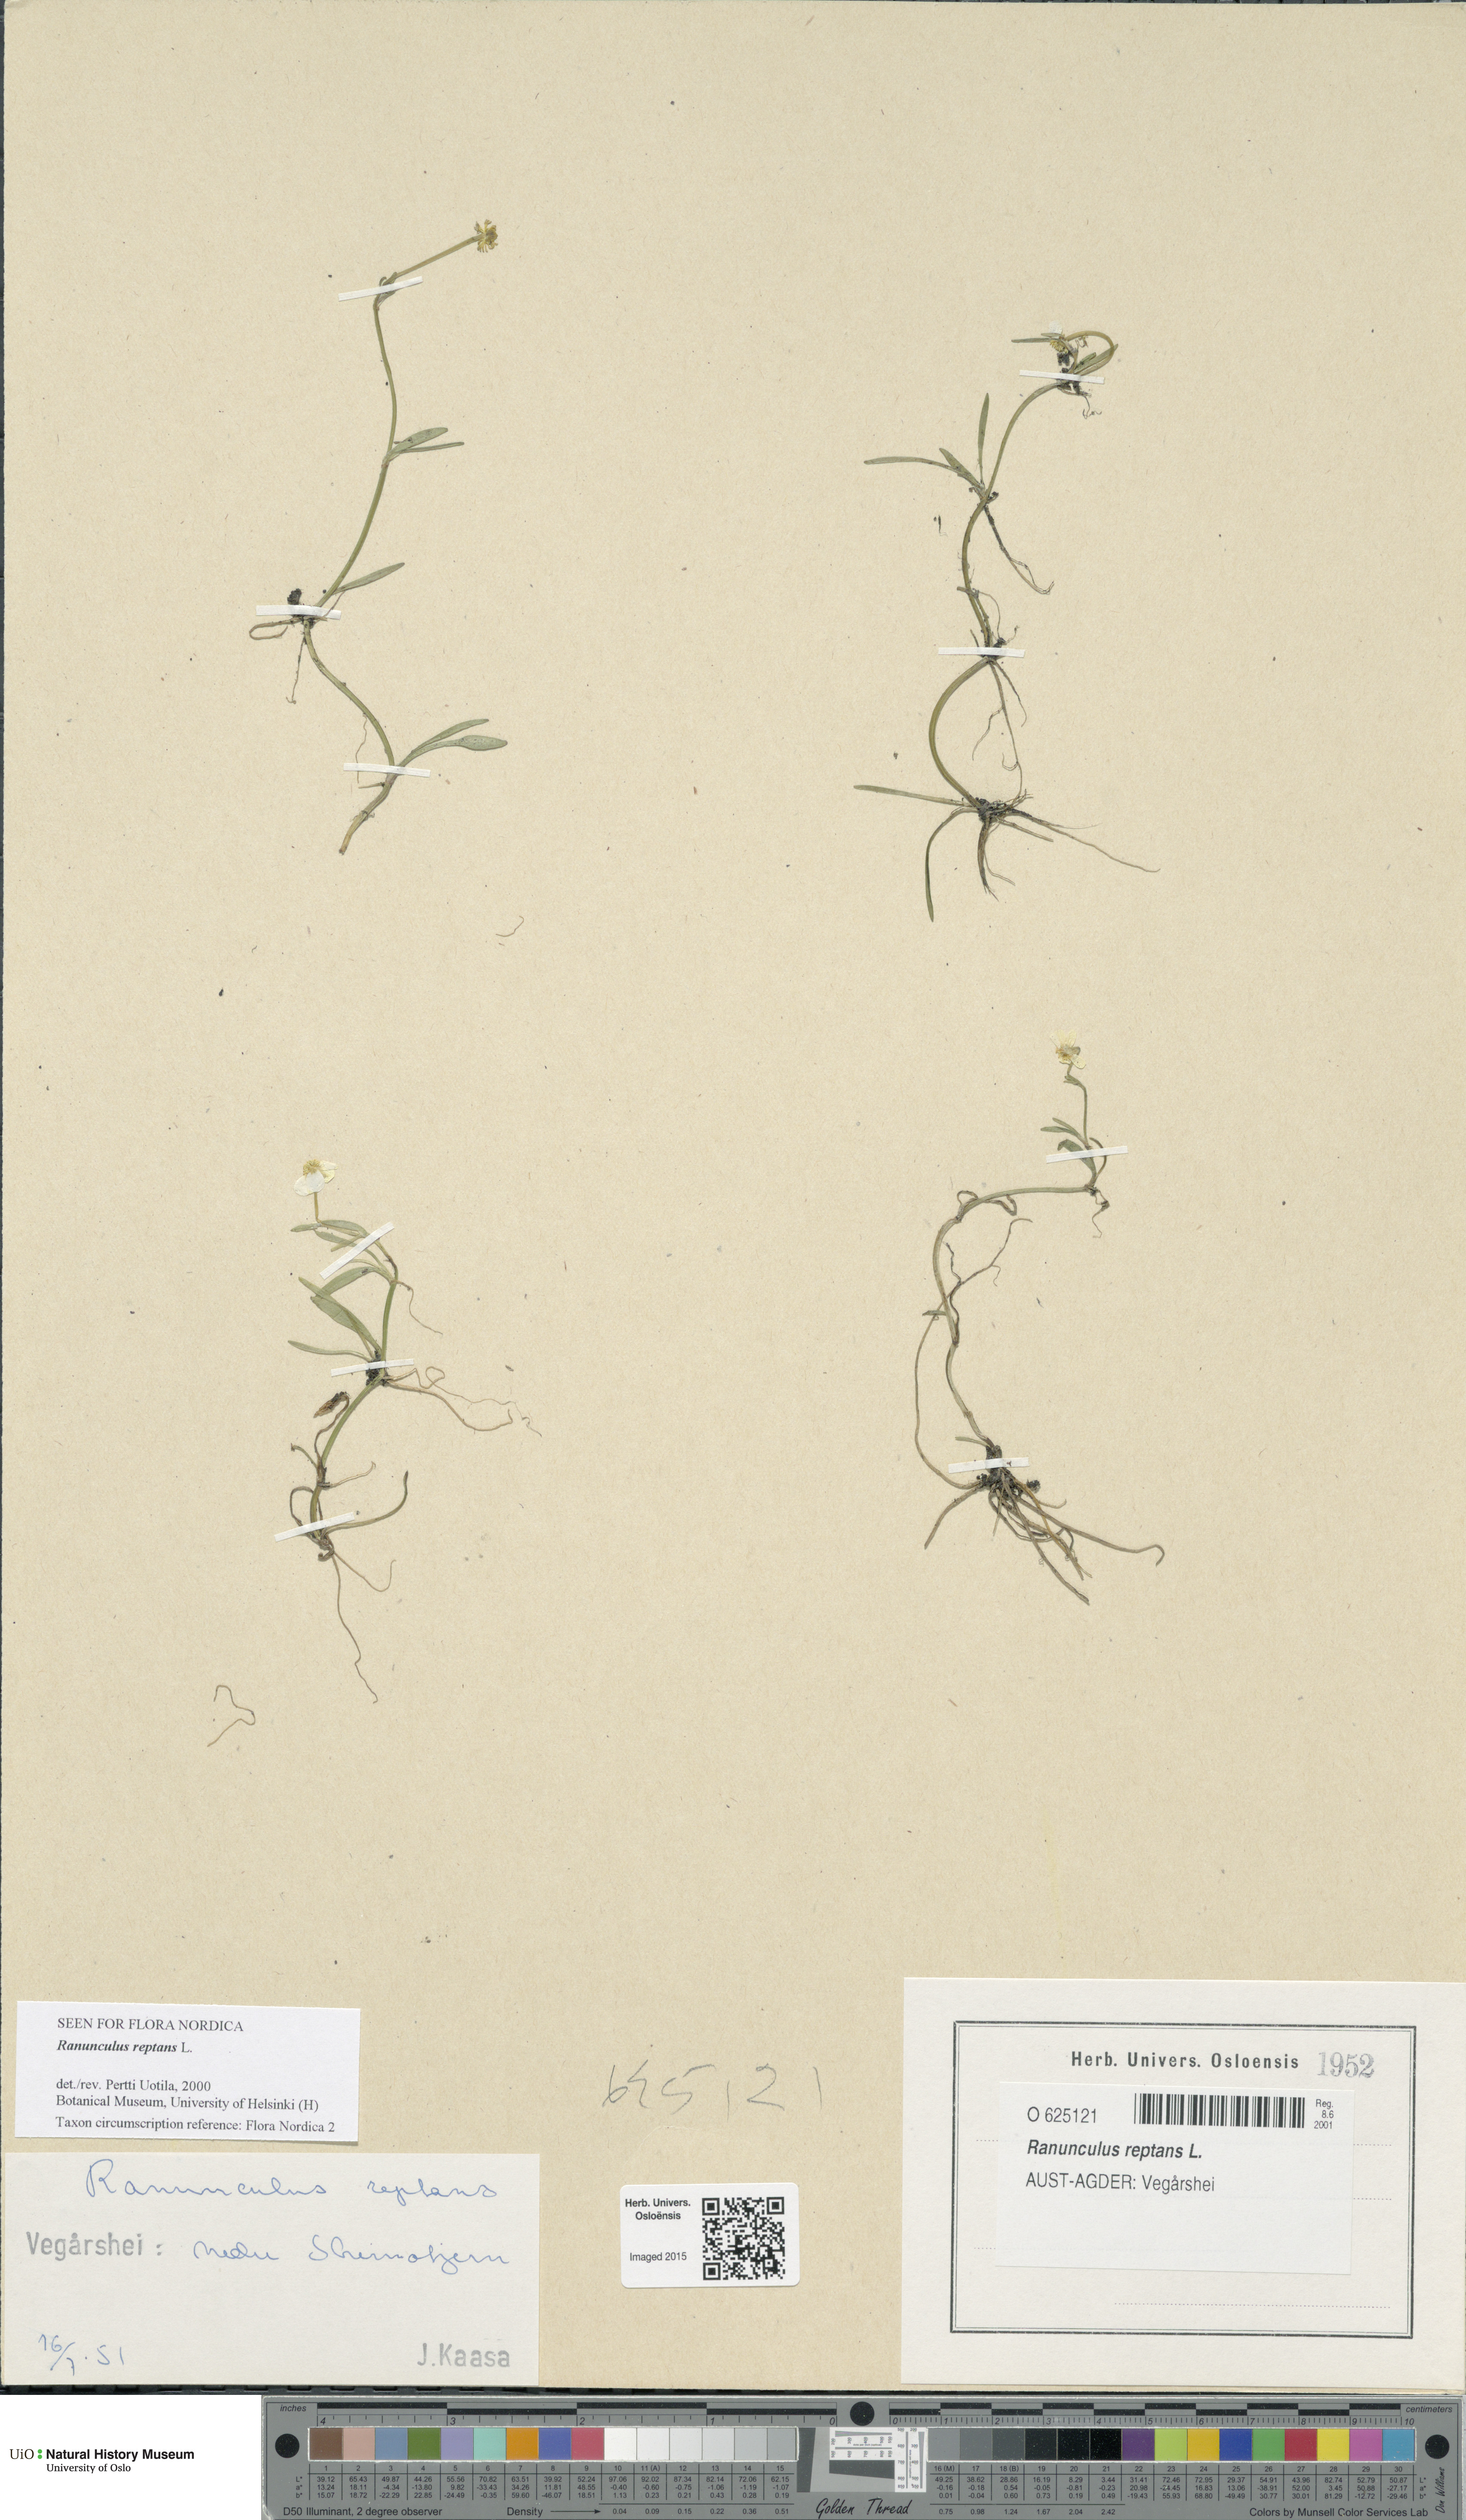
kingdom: Plantae
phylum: Tracheophyta
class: Magnoliopsida
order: Ranunculales
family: Ranunculaceae
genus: Ranunculus
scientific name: Ranunculus reptans
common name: Creeping spearwort
